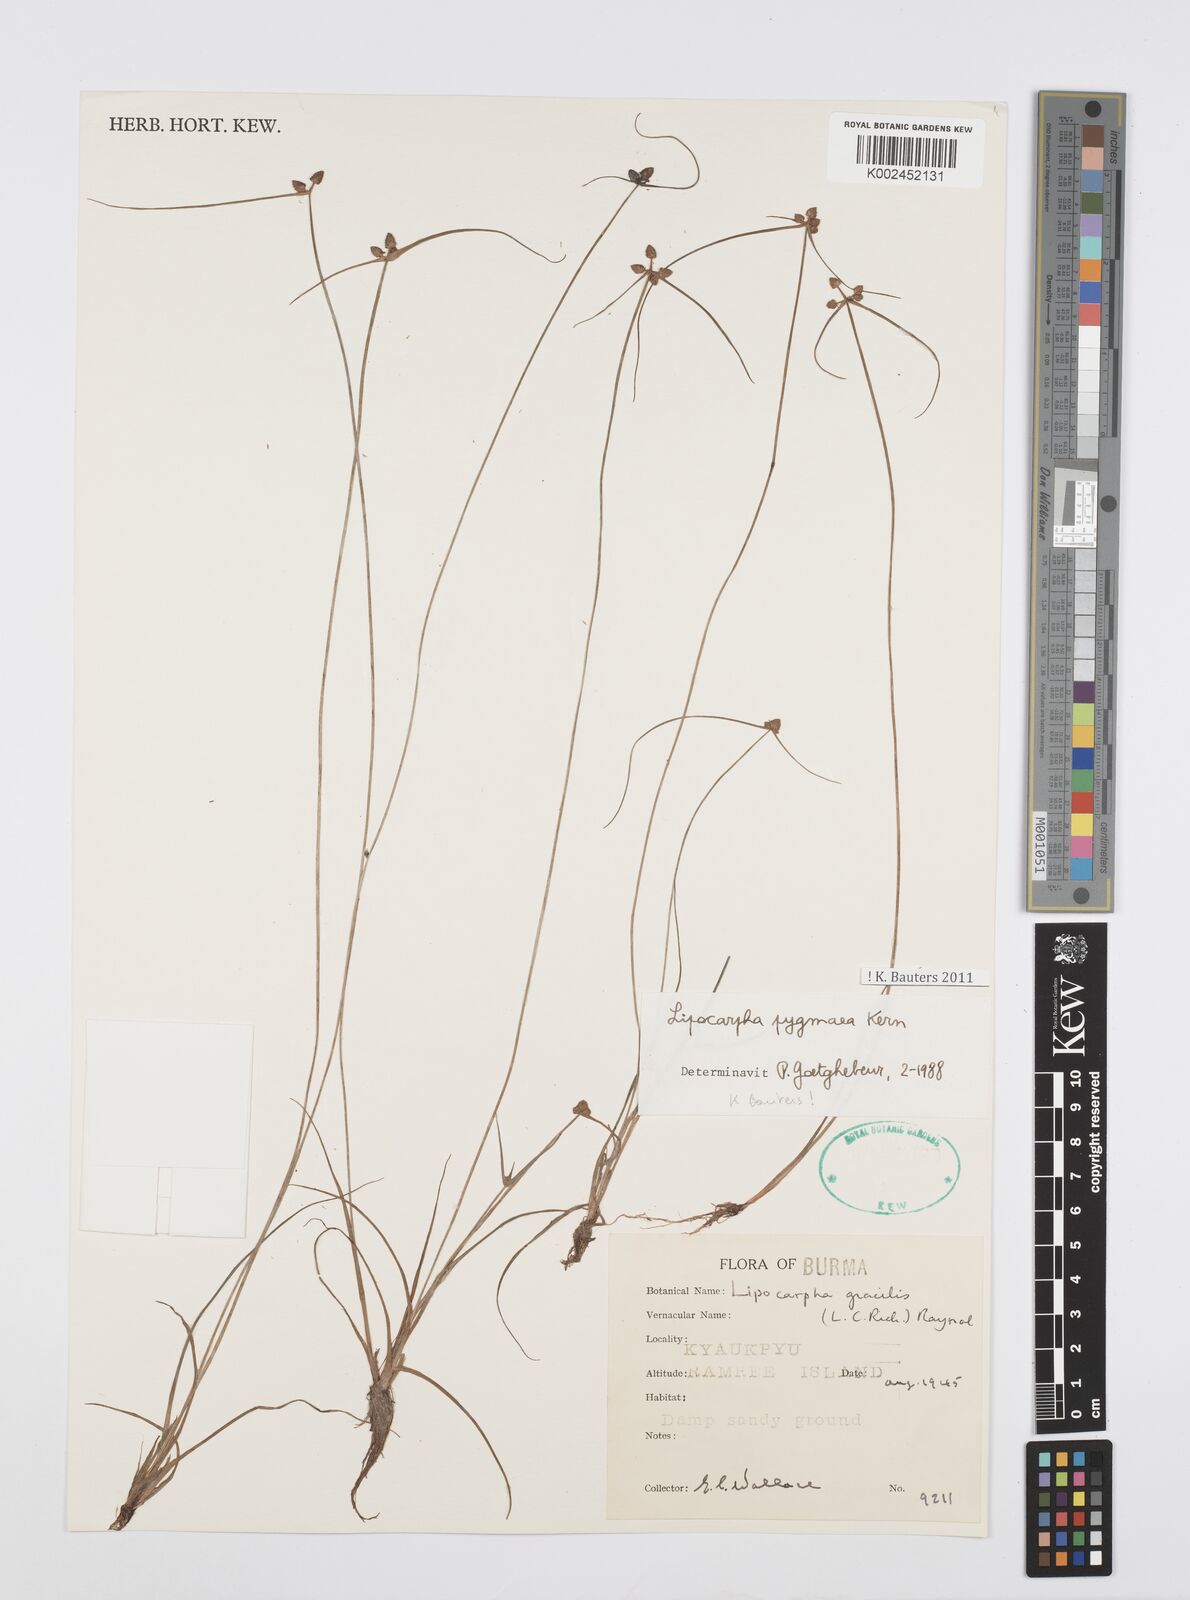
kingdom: Plantae
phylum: Tracheophyta
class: Liliopsida
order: Poales
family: Cyperaceae
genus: Cyperus
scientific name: Cyperus
